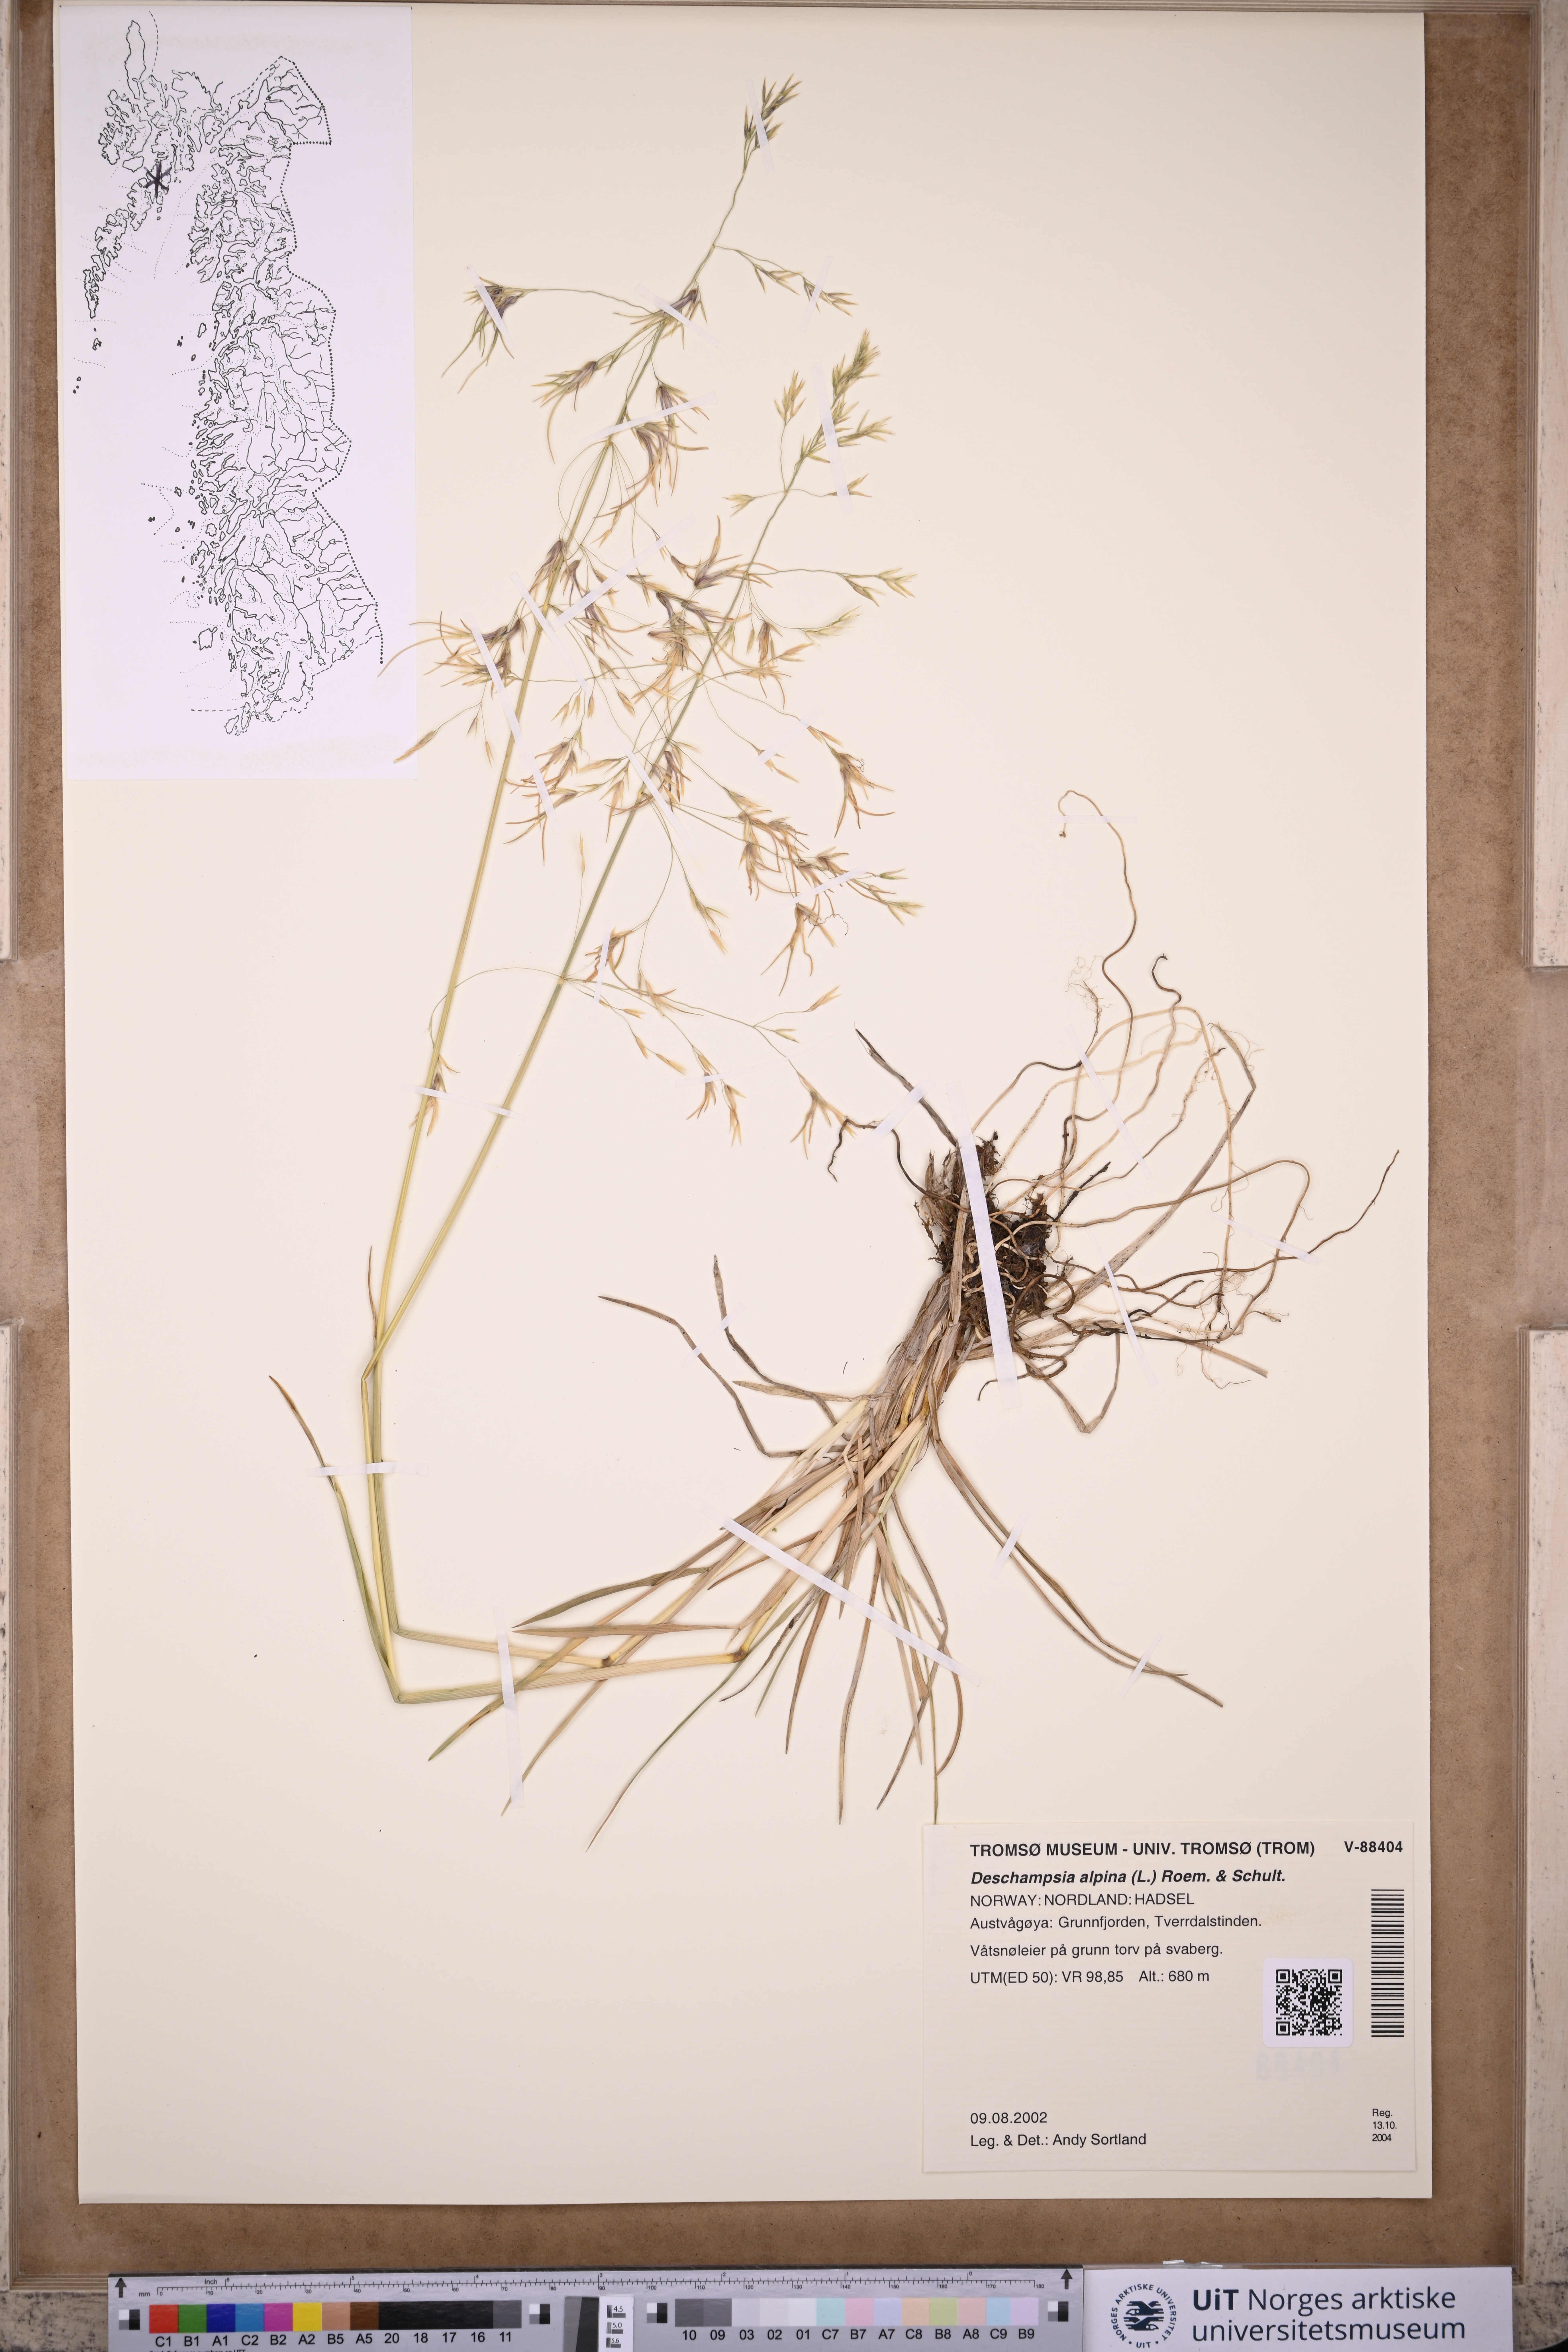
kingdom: Plantae
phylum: Tracheophyta
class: Liliopsida
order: Poales
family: Poaceae
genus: Deschampsia
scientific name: Deschampsia cespitosa
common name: Tufted hair-grass
